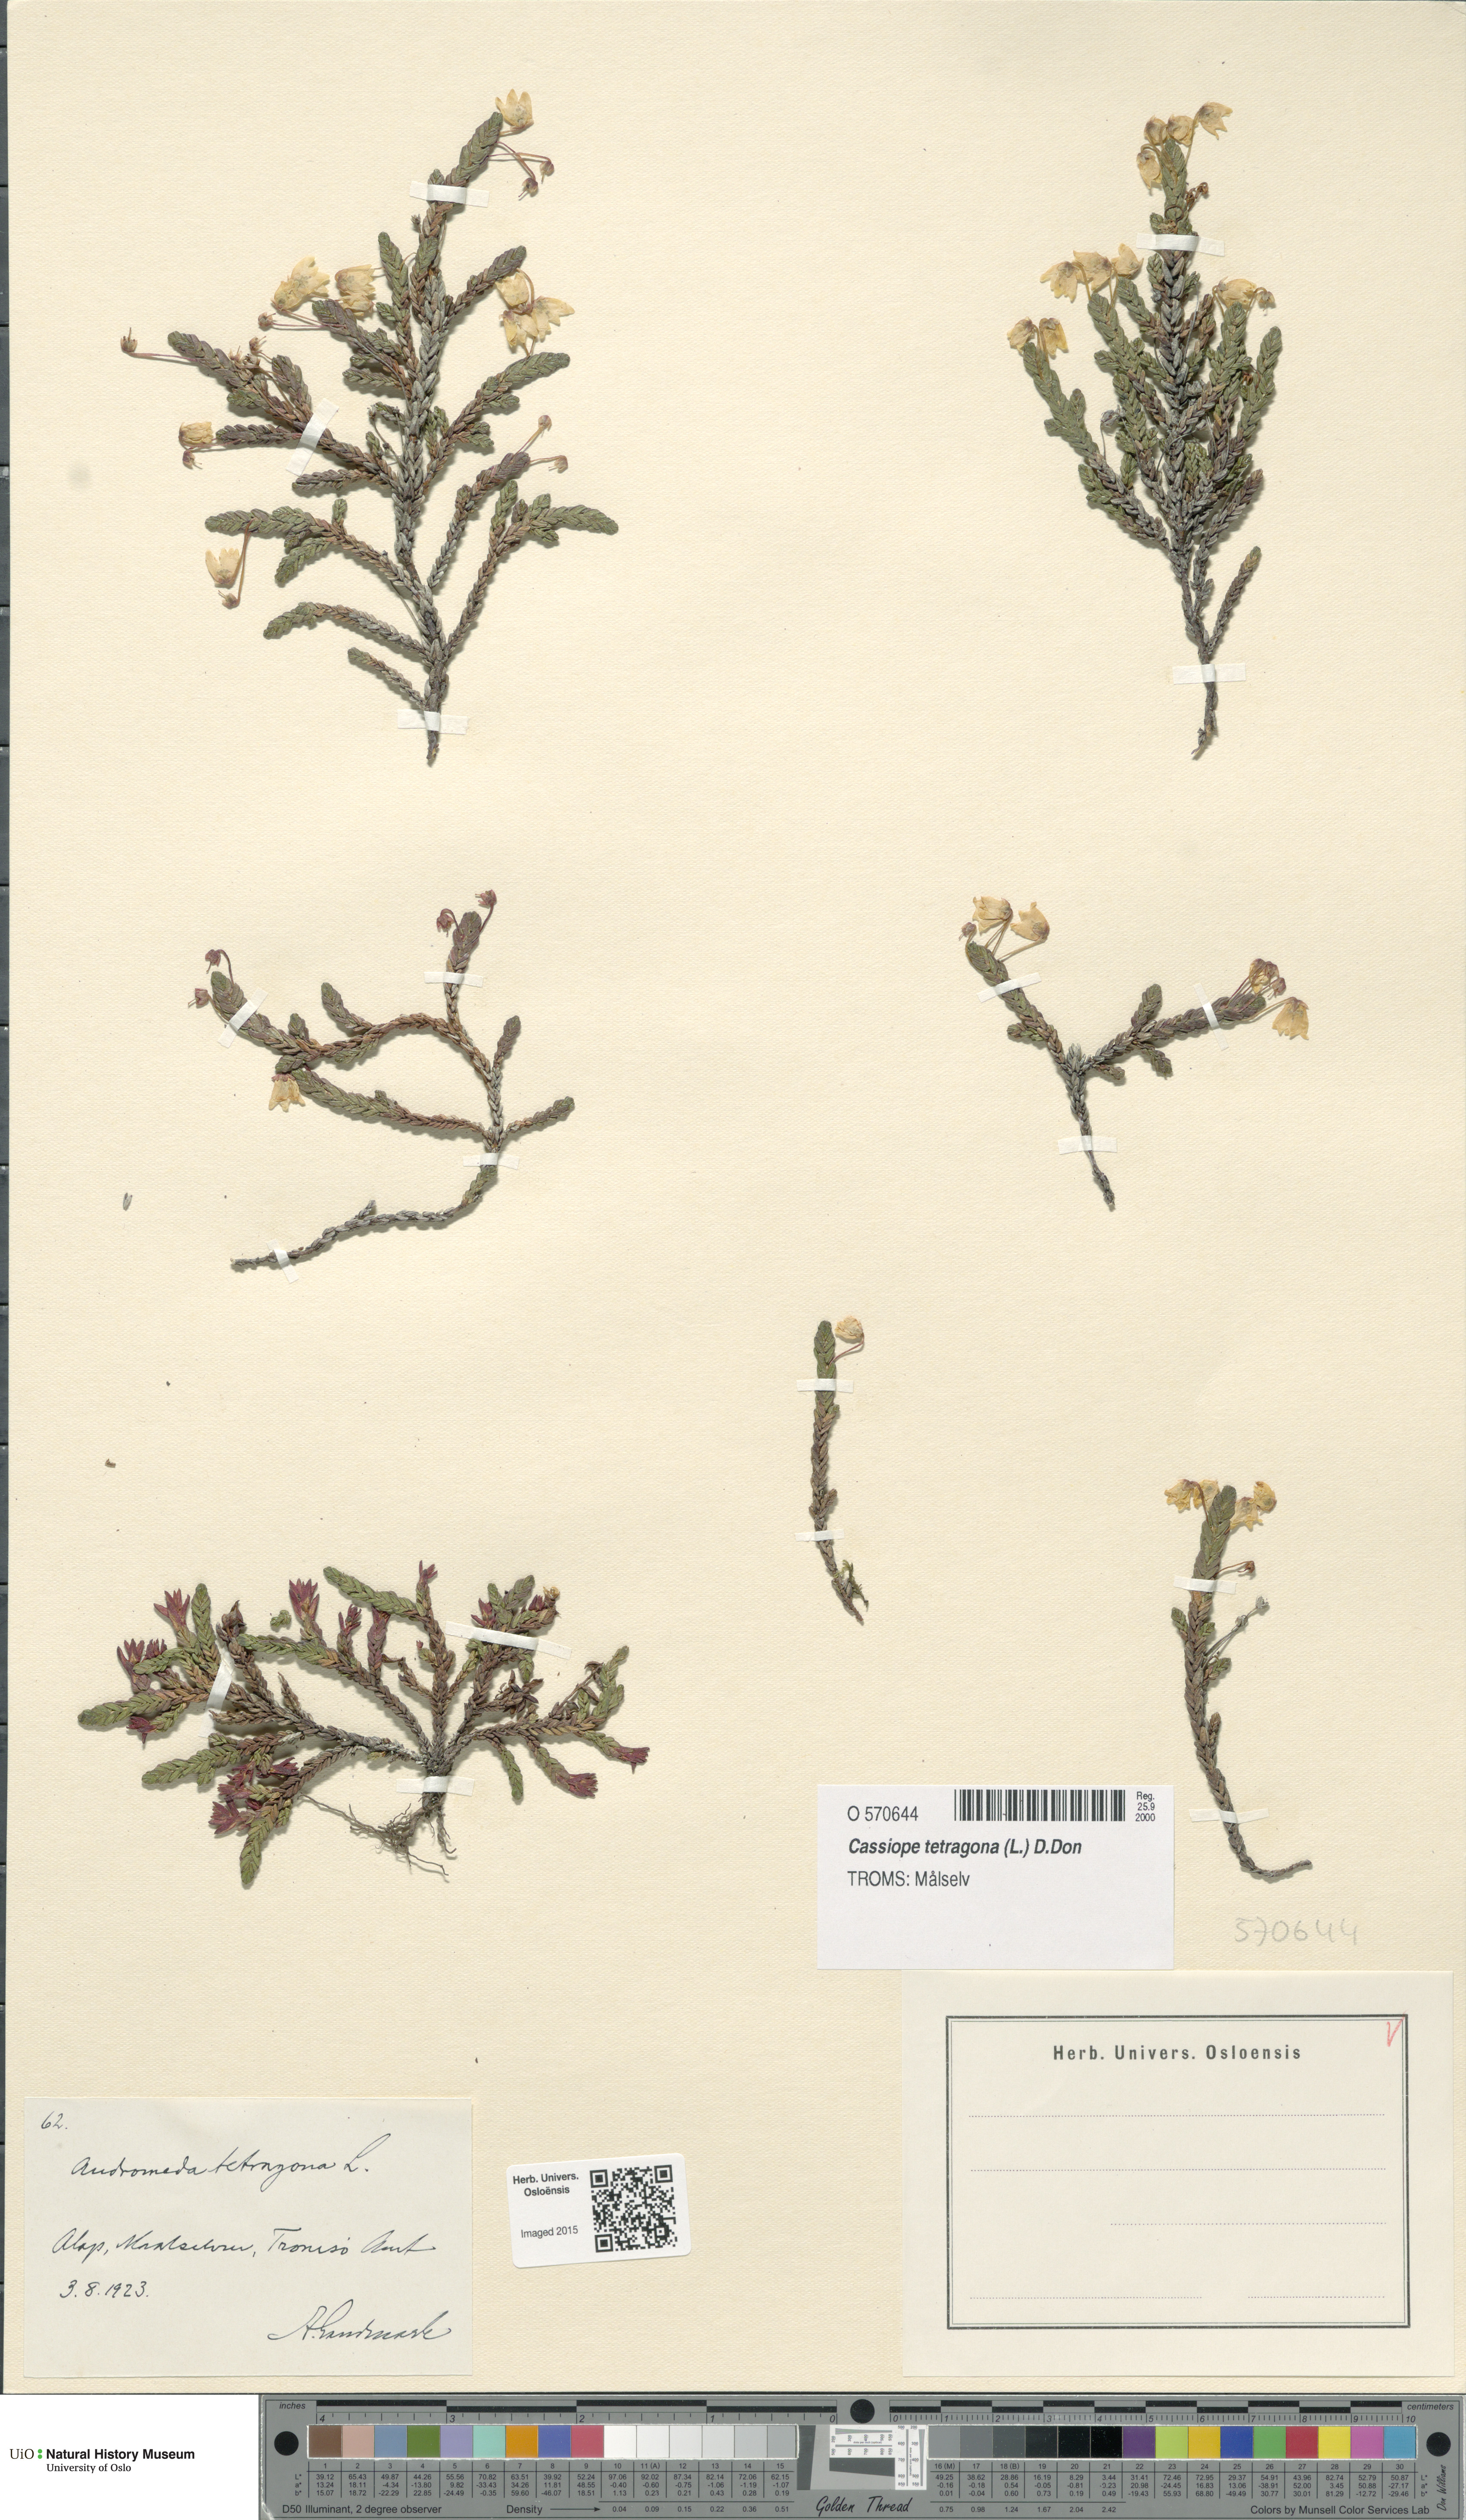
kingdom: Plantae
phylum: Tracheophyta
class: Magnoliopsida
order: Ericales
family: Ericaceae
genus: Cassiope
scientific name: Cassiope tetragona
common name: Arctic bell heather
